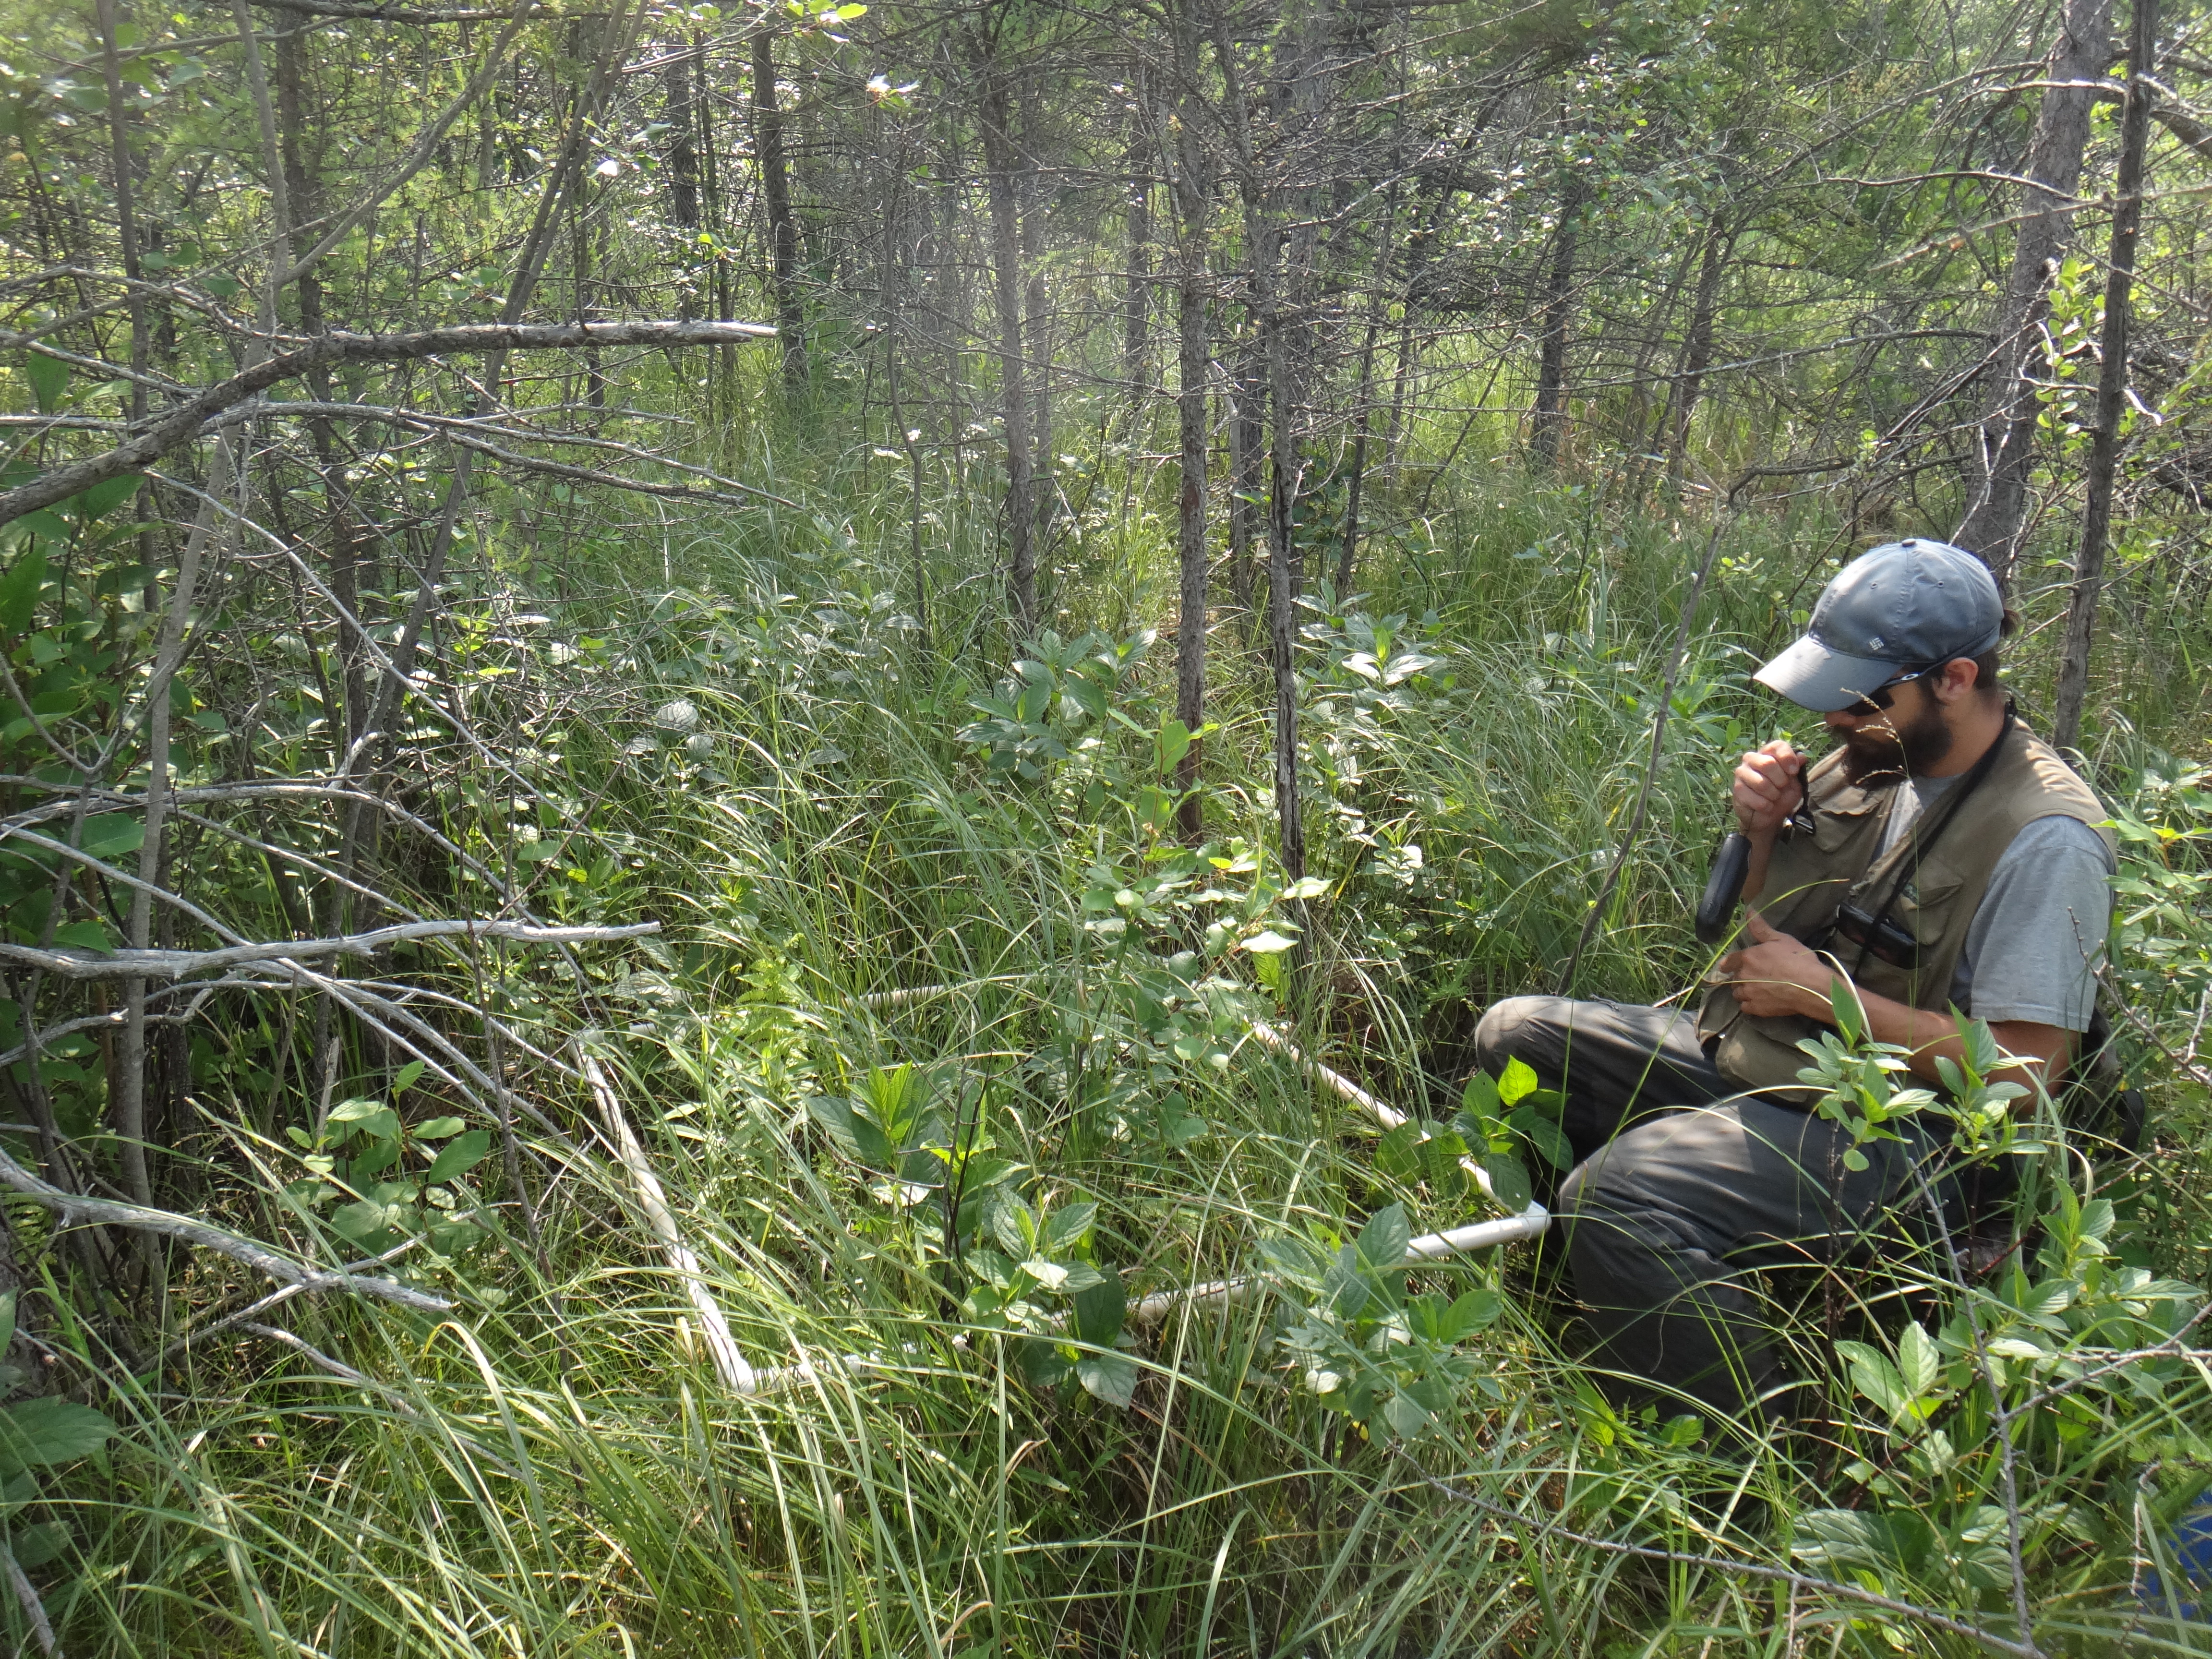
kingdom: Plantae
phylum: Tracheophyta
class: Magnoliopsida
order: Rosales
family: Rhamnaceae
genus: Frangula
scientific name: Frangula alnus
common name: Alder buckthorn
